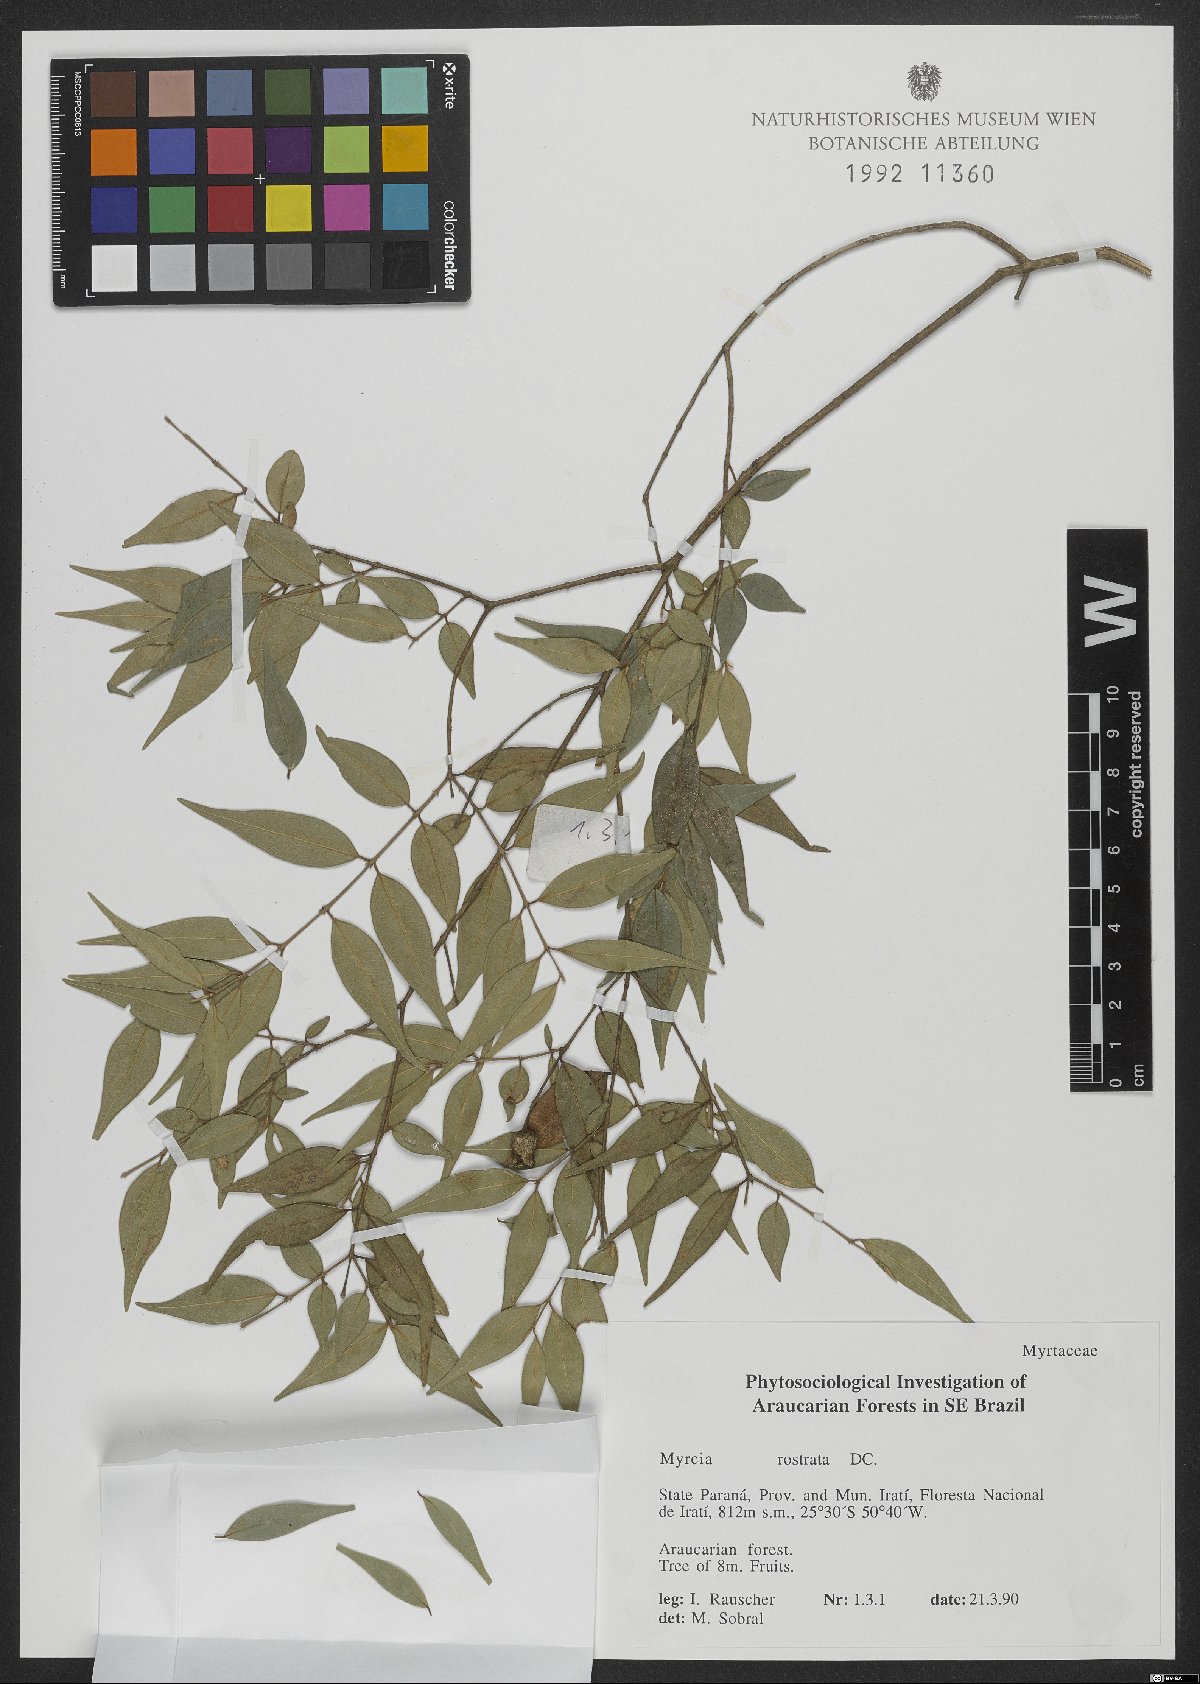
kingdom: Plantae
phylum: Tracheophyta
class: Magnoliopsida
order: Myrtales
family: Myrtaceae
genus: Myrcia
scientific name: Myrcia splendens
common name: Surinam cherry
